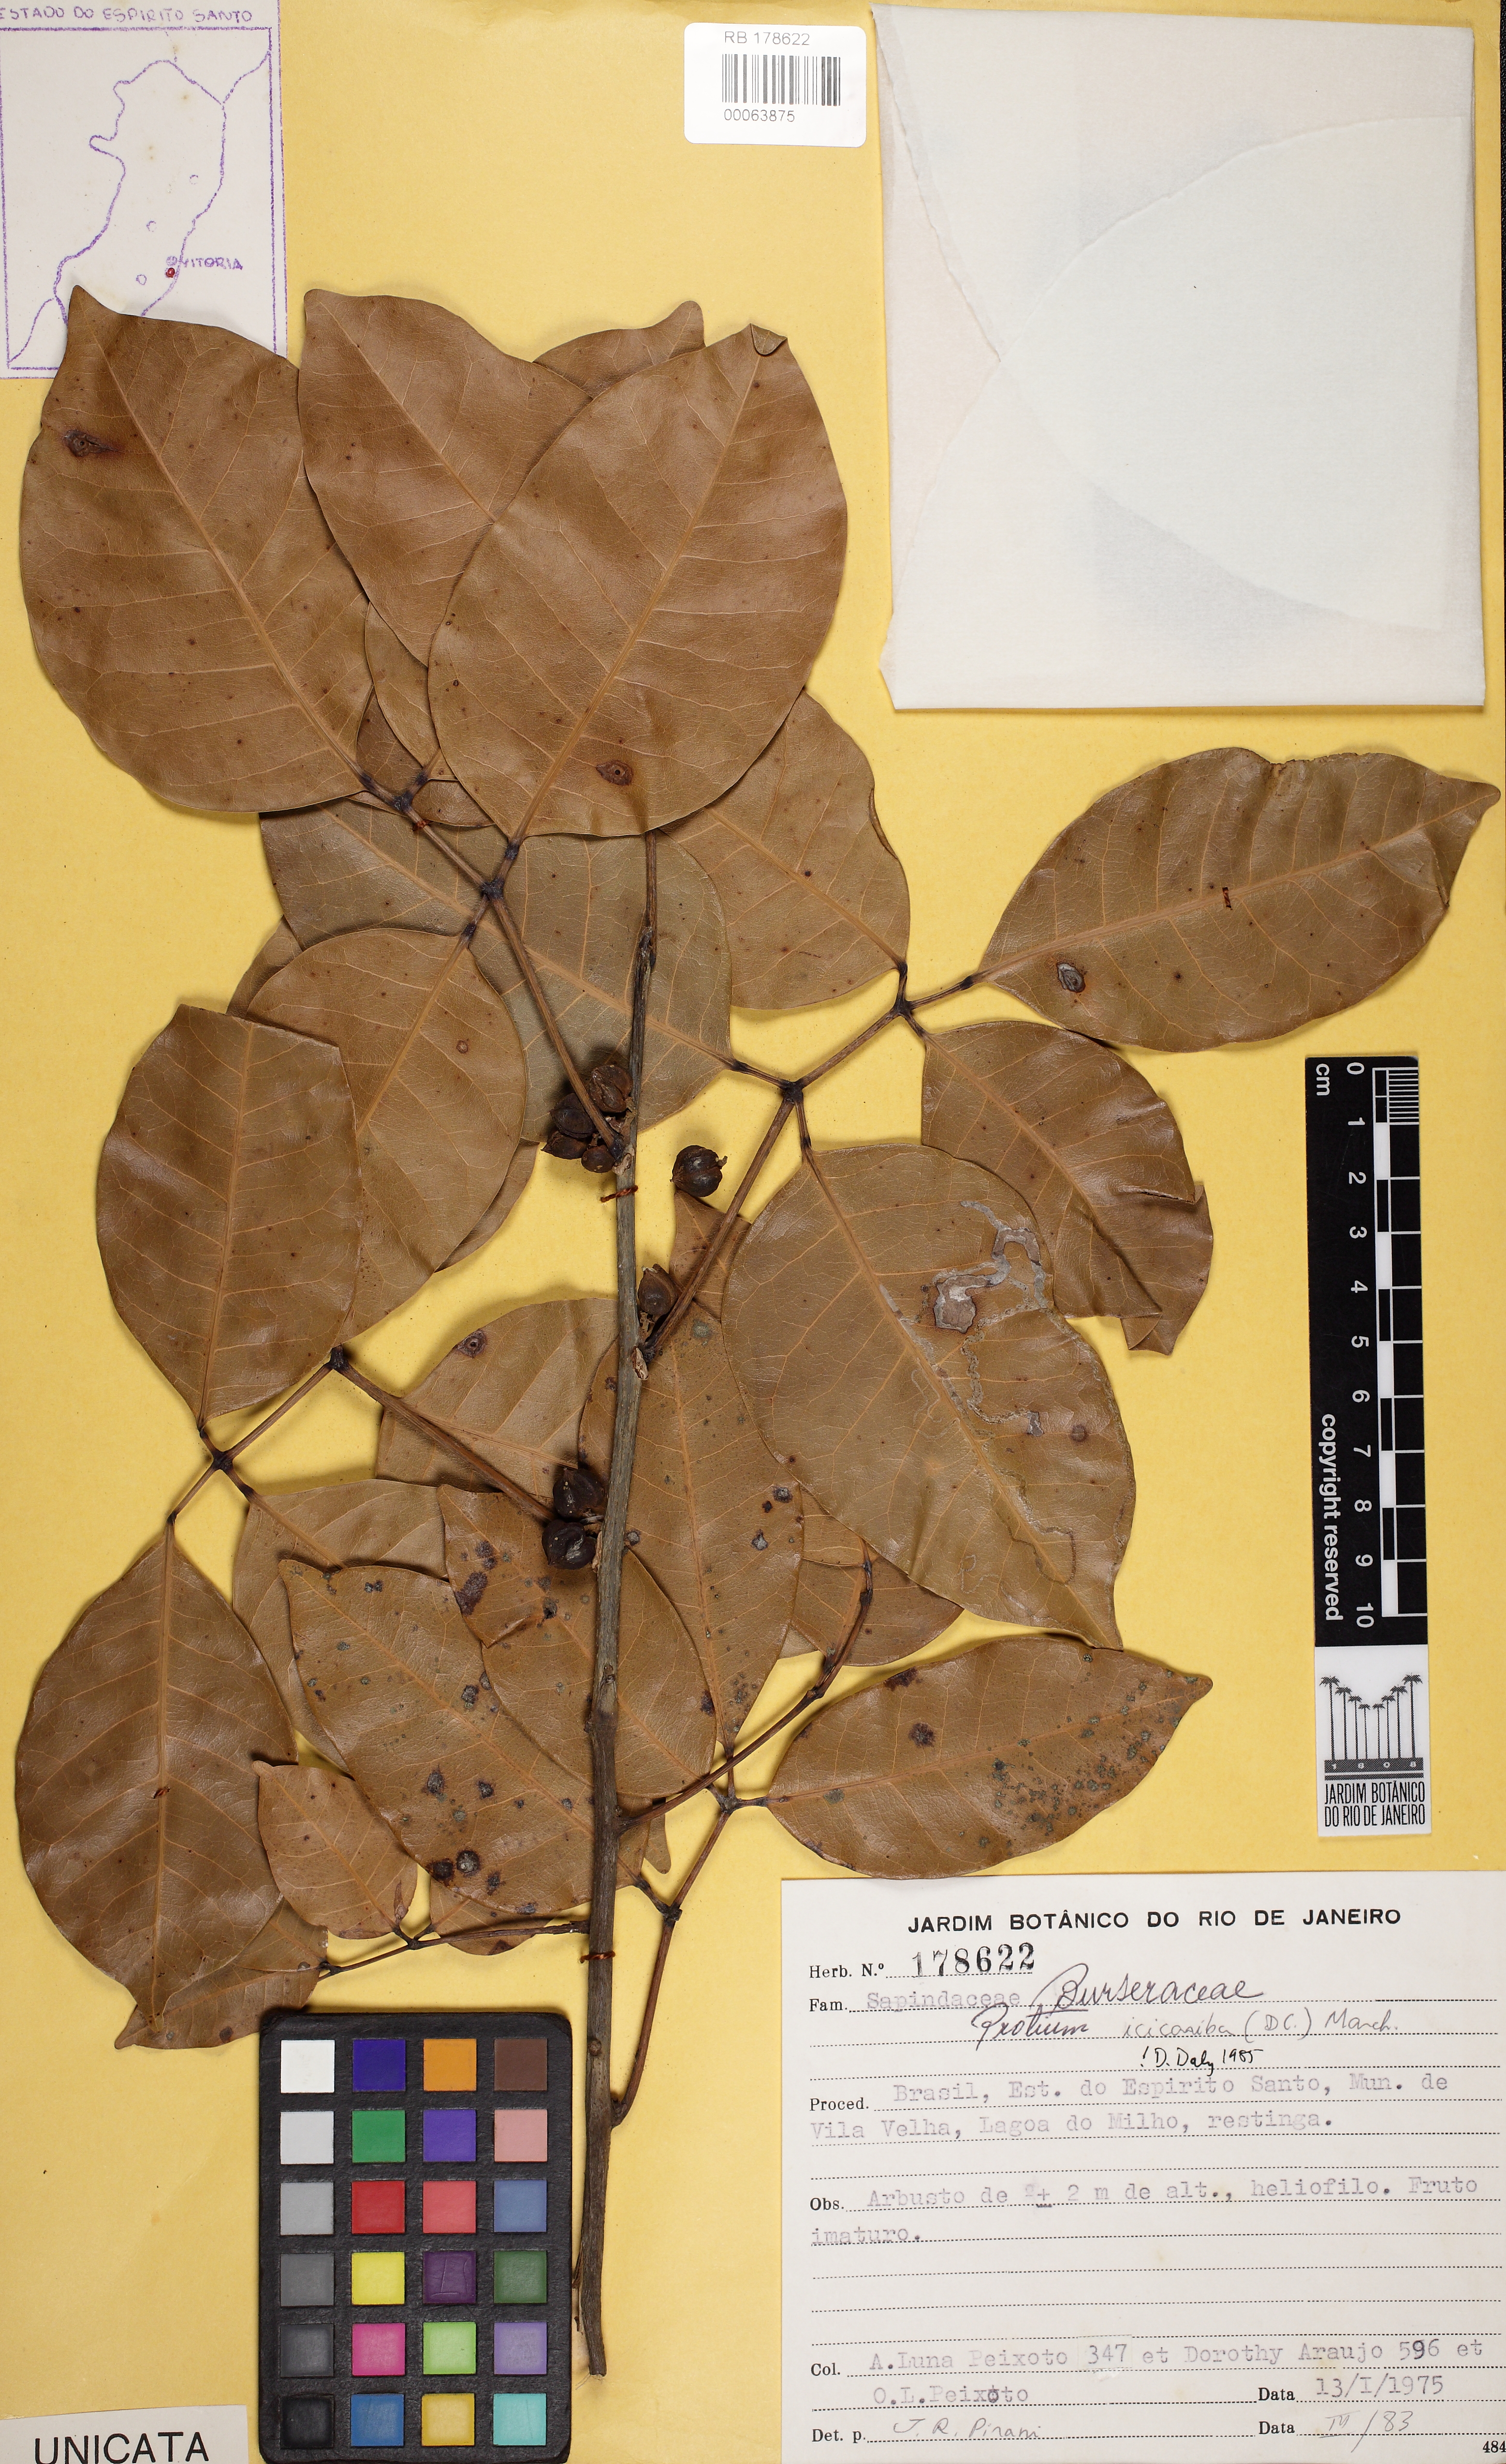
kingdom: Plantae
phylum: Tracheophyta
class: Magnoliopsida
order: Sapindales
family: Burseraceae
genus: Protium
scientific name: Protium icicariba
